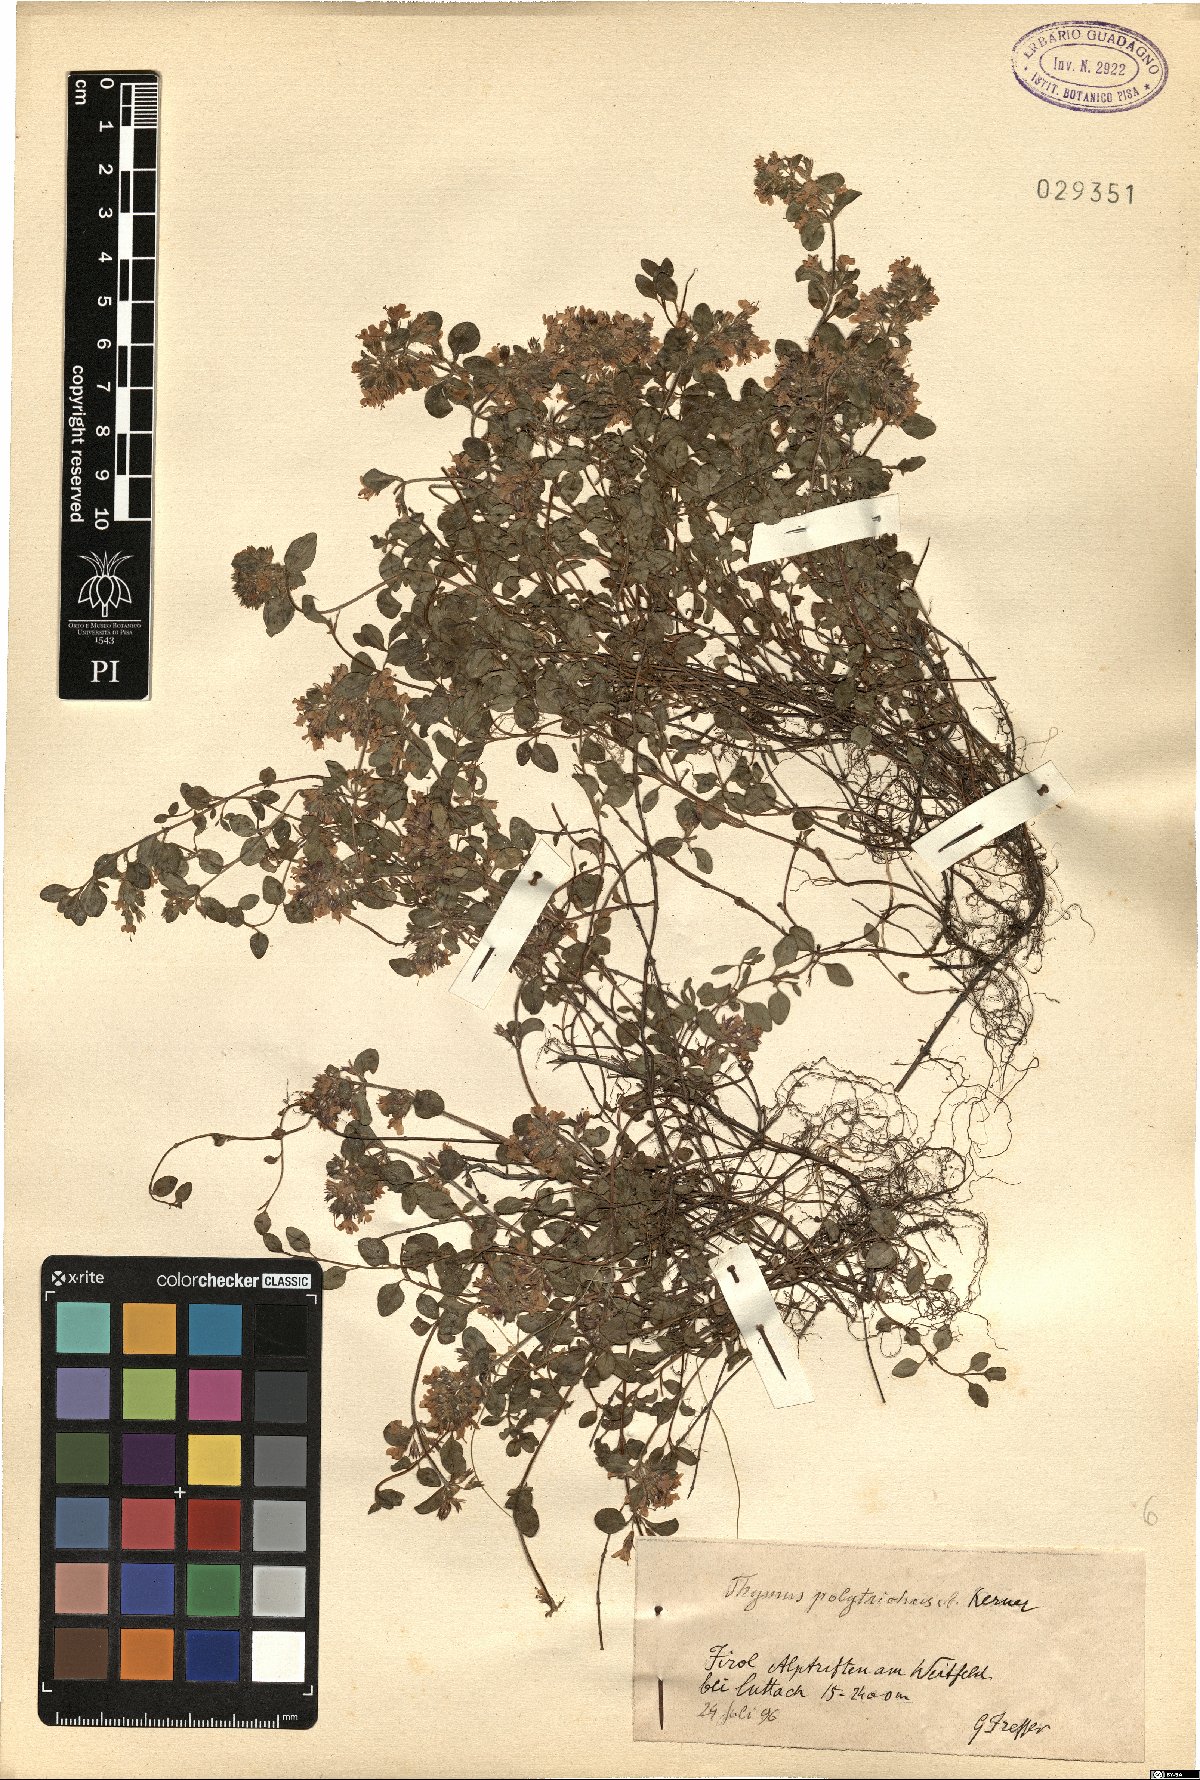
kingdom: Plantae
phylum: Tracheophyta
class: Magnoliopsida
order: Lamiales
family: Lamiaceae
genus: Thymus
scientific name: Thymus praecox
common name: Wild thyme
